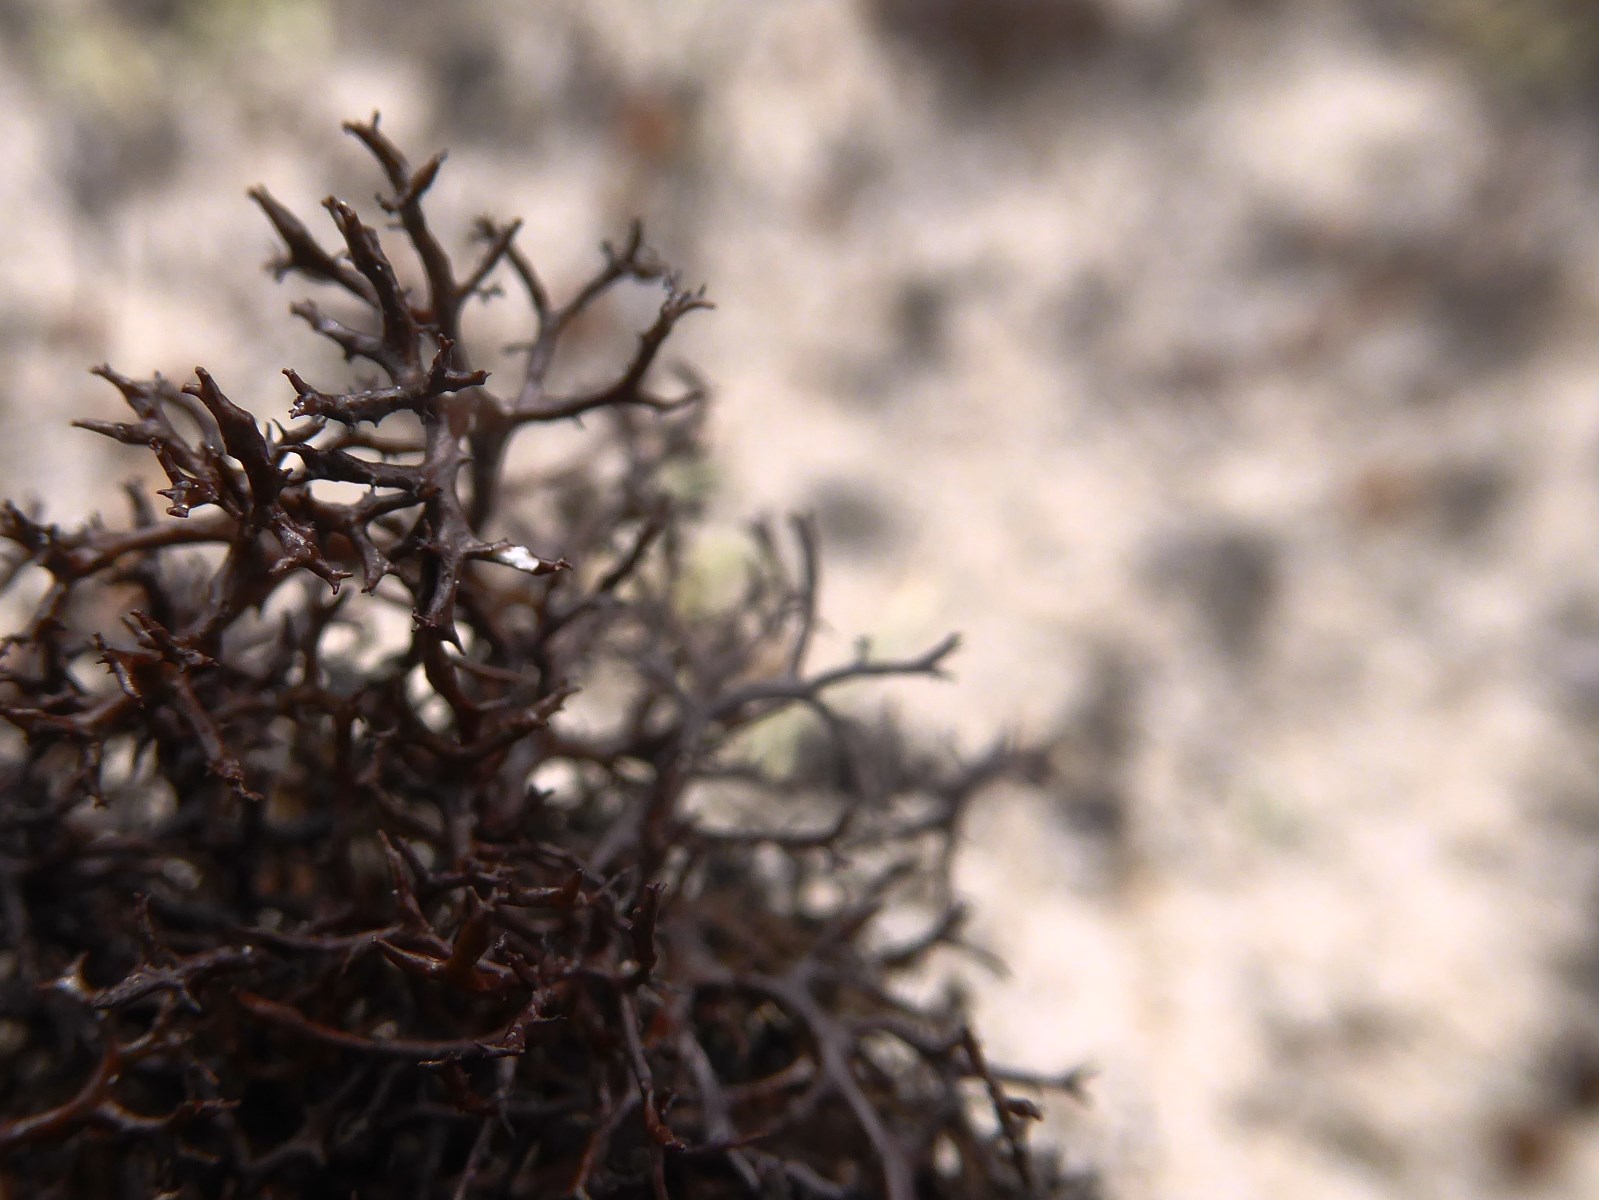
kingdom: Fungi
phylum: Ascomycota
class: Lecanoromycetes
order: Lecanorales
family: Parmeliaceae
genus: Cetraria
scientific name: Cetraria muricata
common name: tue-tjørnelav
